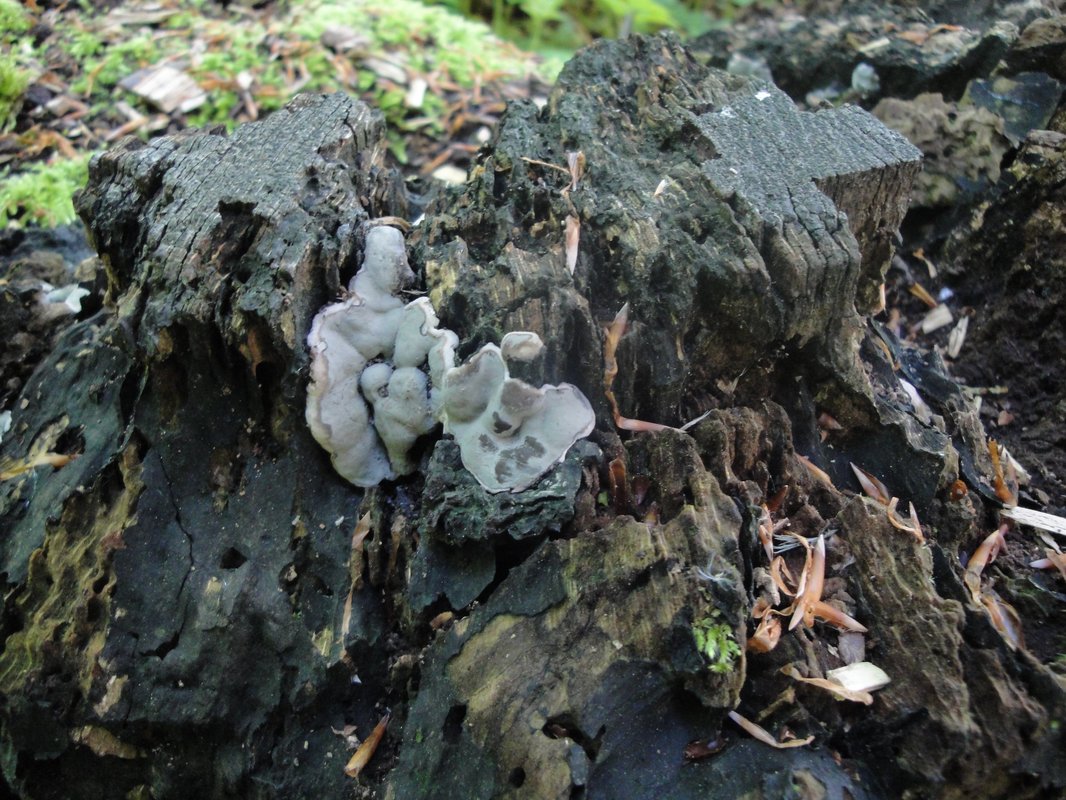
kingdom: Fungi
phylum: Ascomycota
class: Sordariomycetes
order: Xylariales
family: Xylariaceae
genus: Kretzschmaria
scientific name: Kretzschmaria deusta
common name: stor kulsvamp
